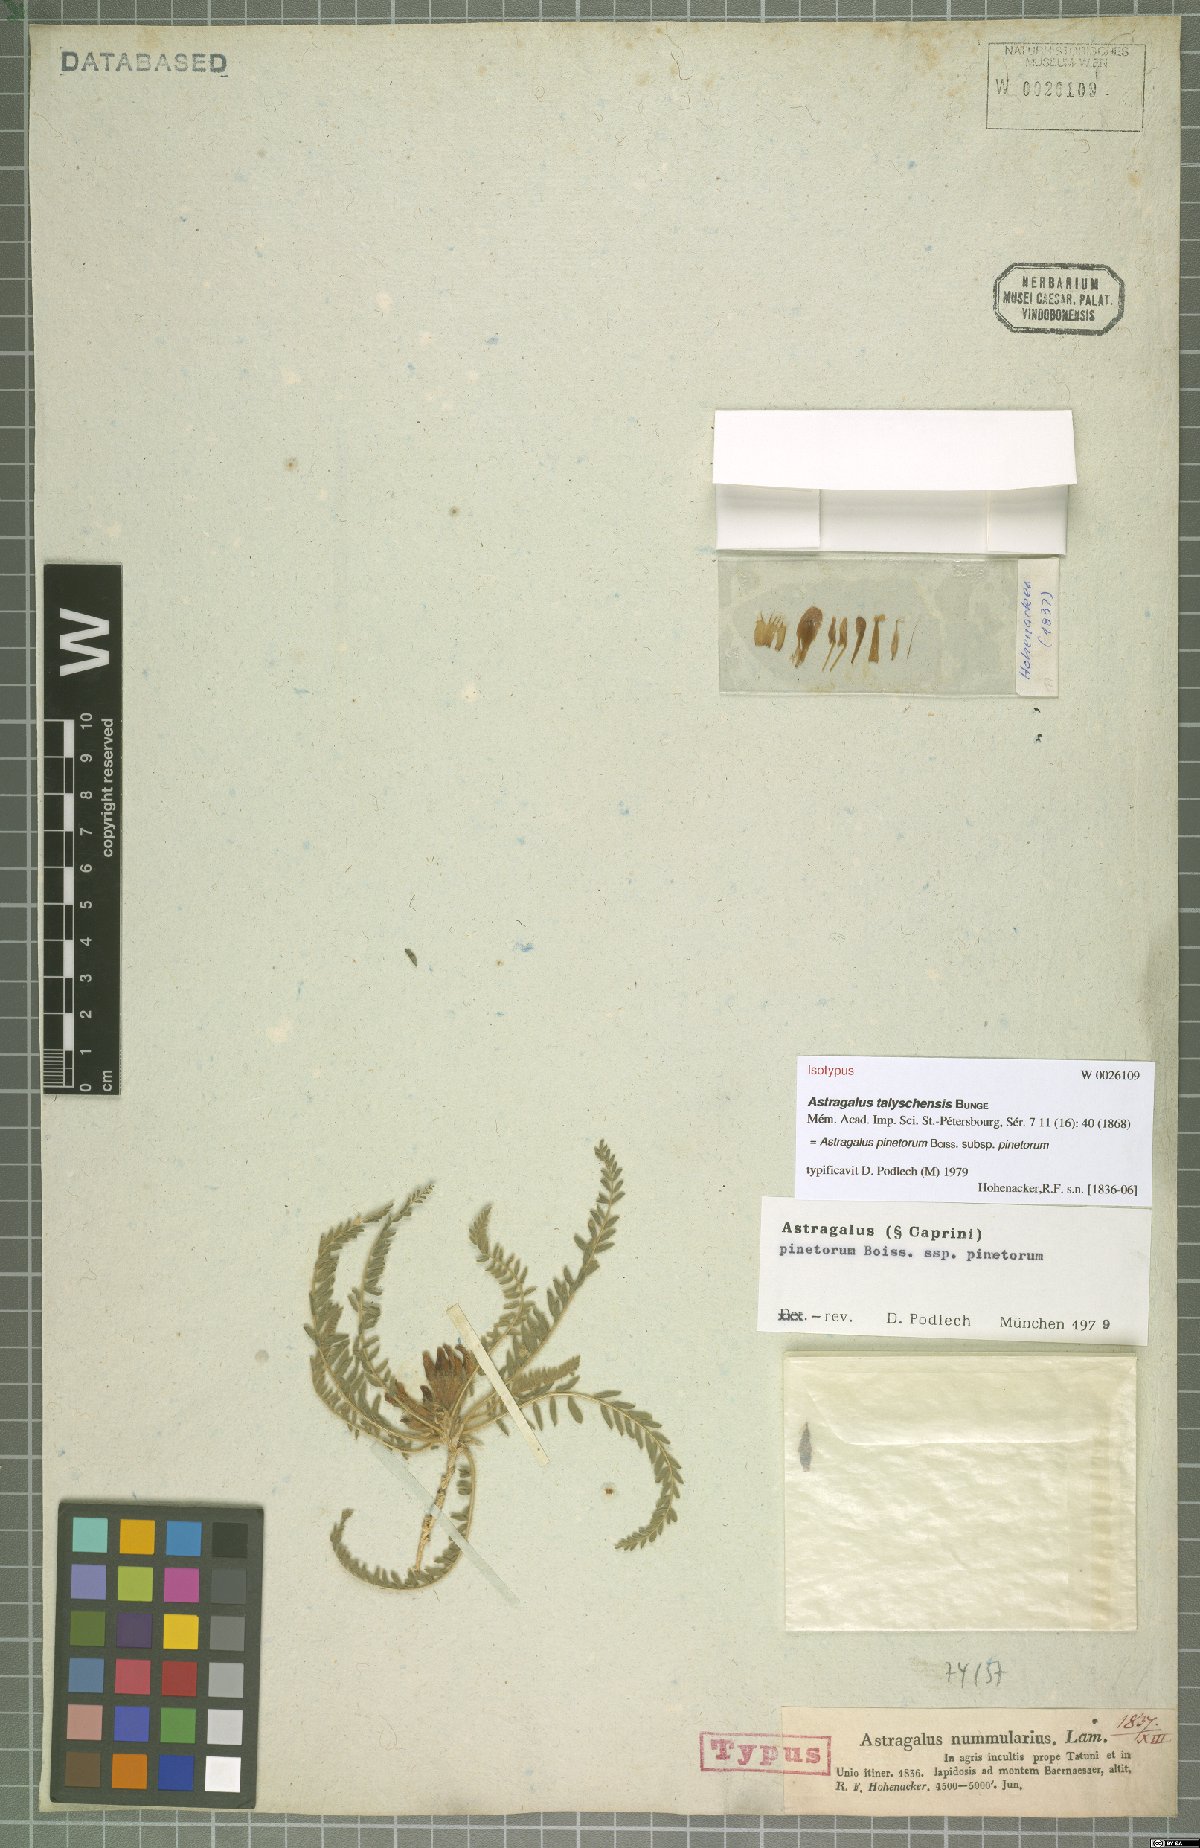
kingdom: Plantae
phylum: Tracheophyta
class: Magnoliopsida
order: Fabales
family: Fabaceae
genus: Astragalus
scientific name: Astragalus pinetorum
